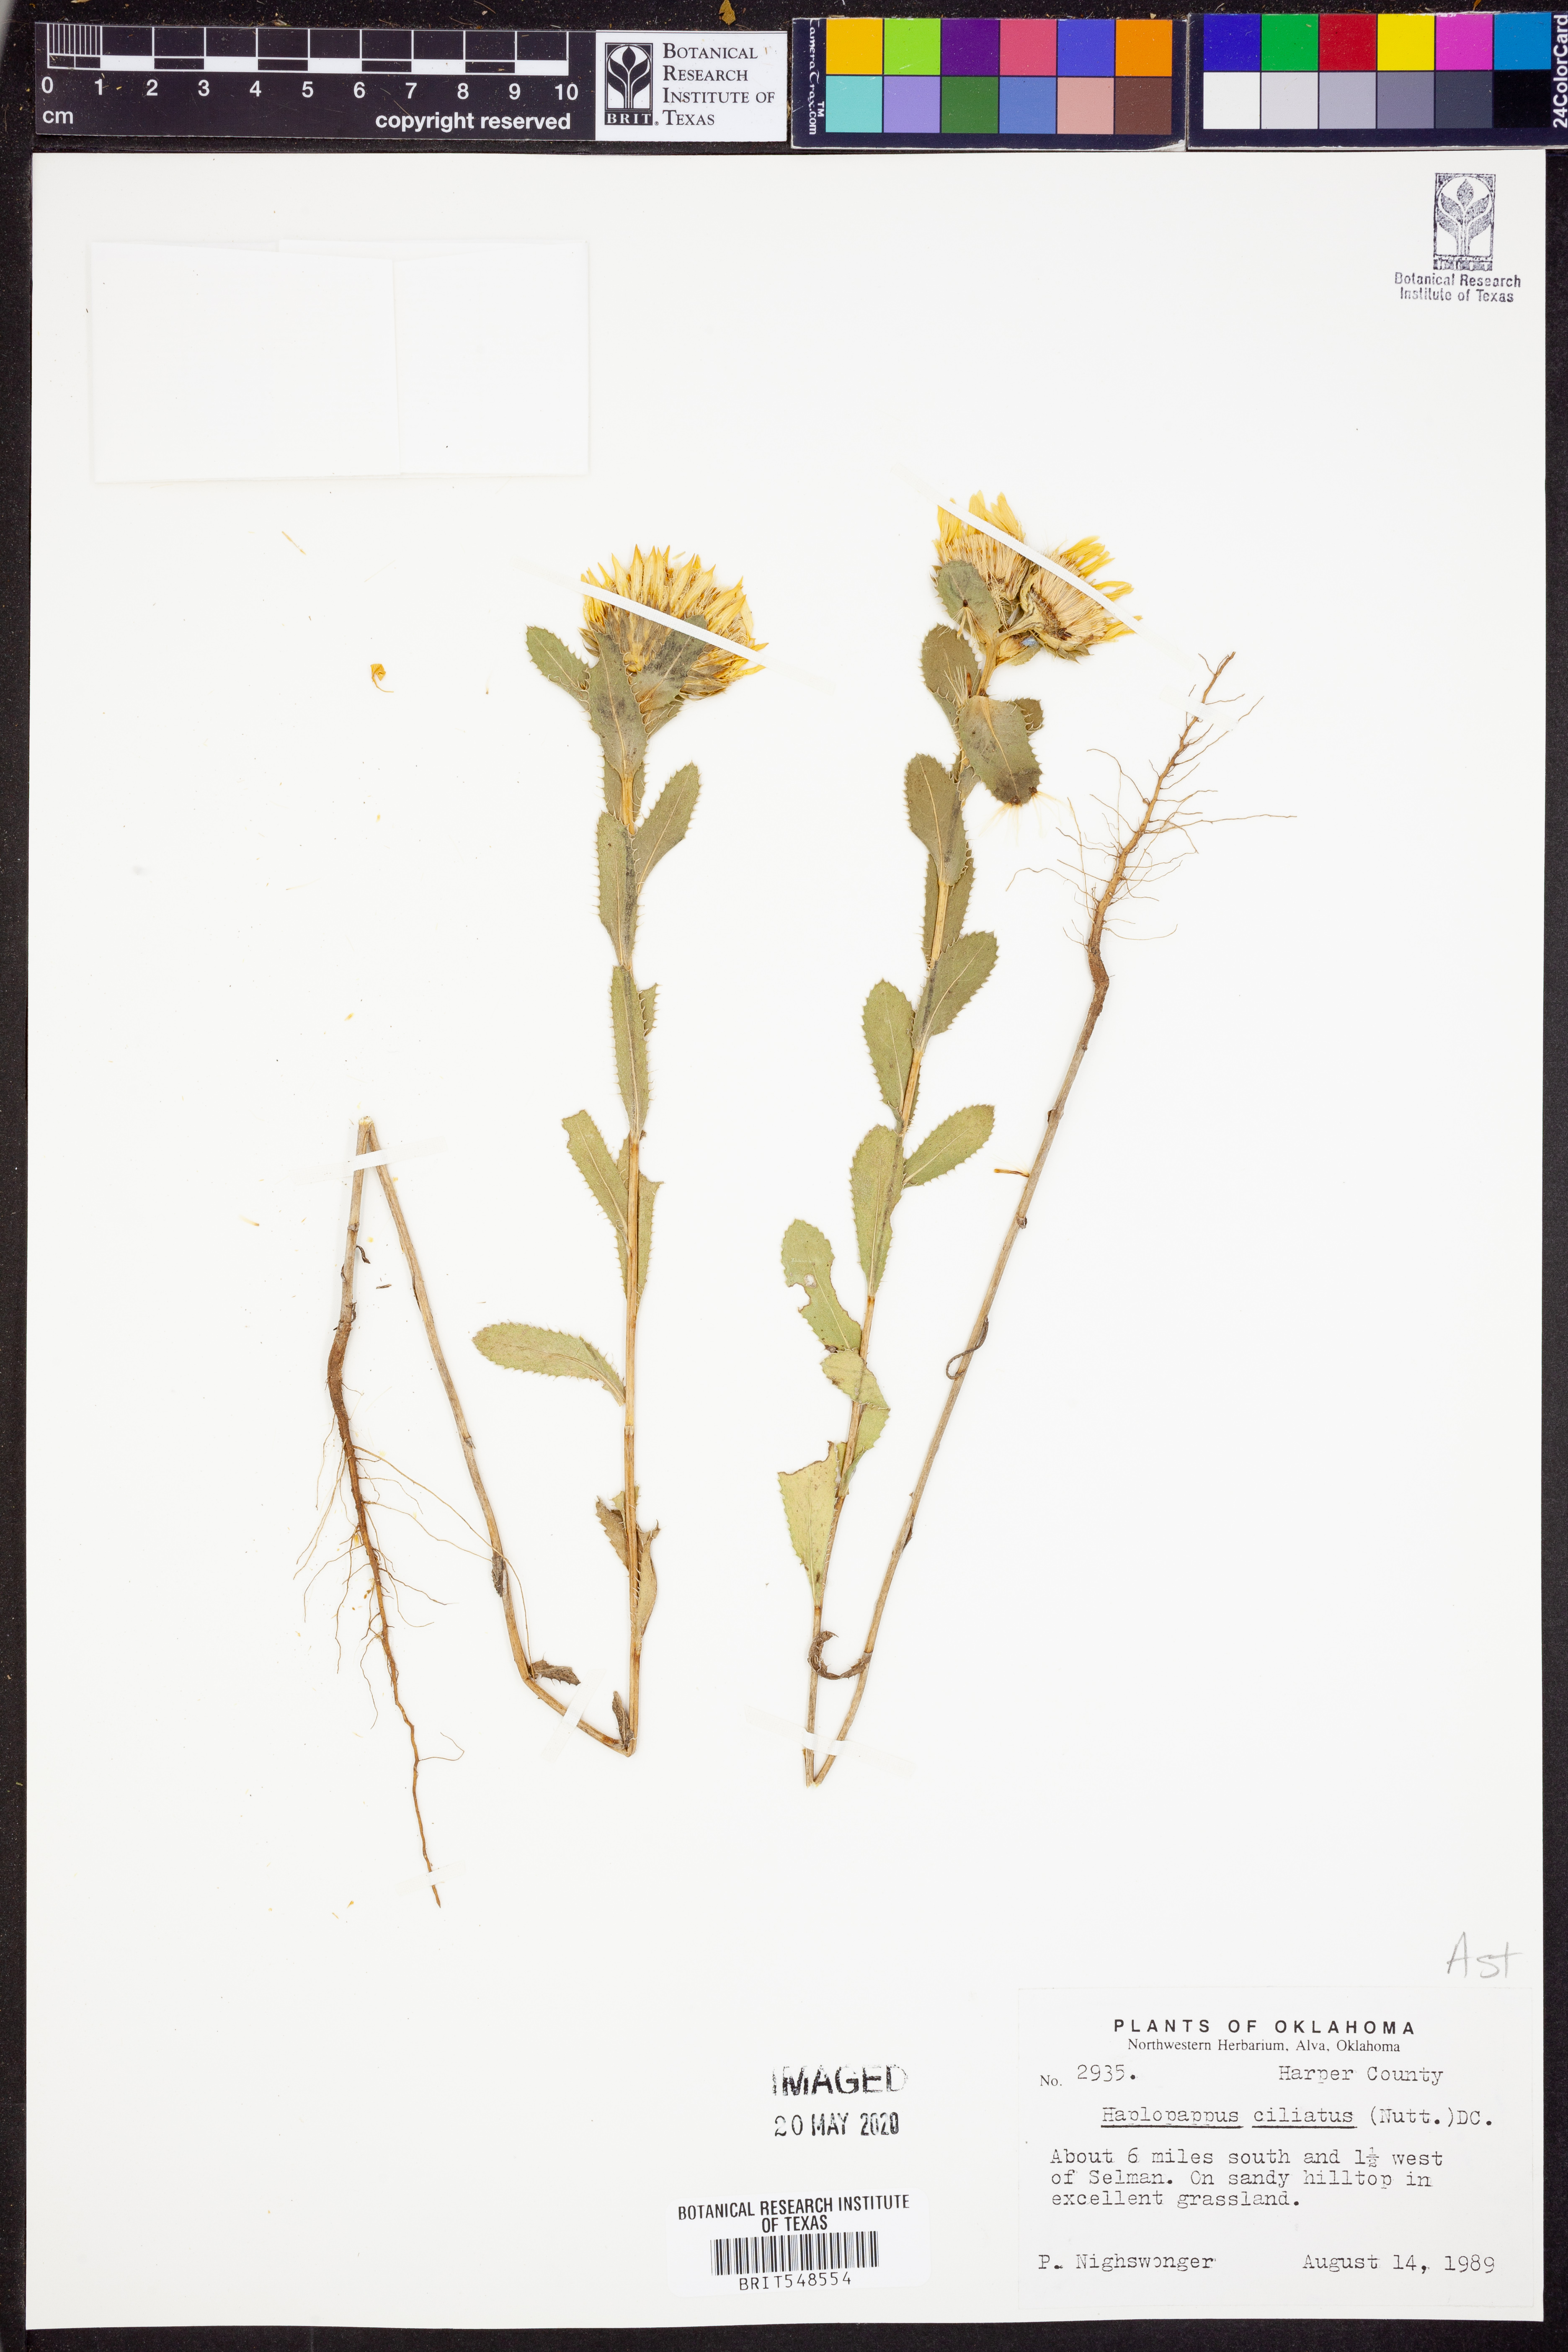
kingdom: Plantae
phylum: Tracheophyta
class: Magnoliopsida
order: Asterales
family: Asteraceae
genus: Grindelia
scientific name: Grindelia ciliata
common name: Goldenweed
